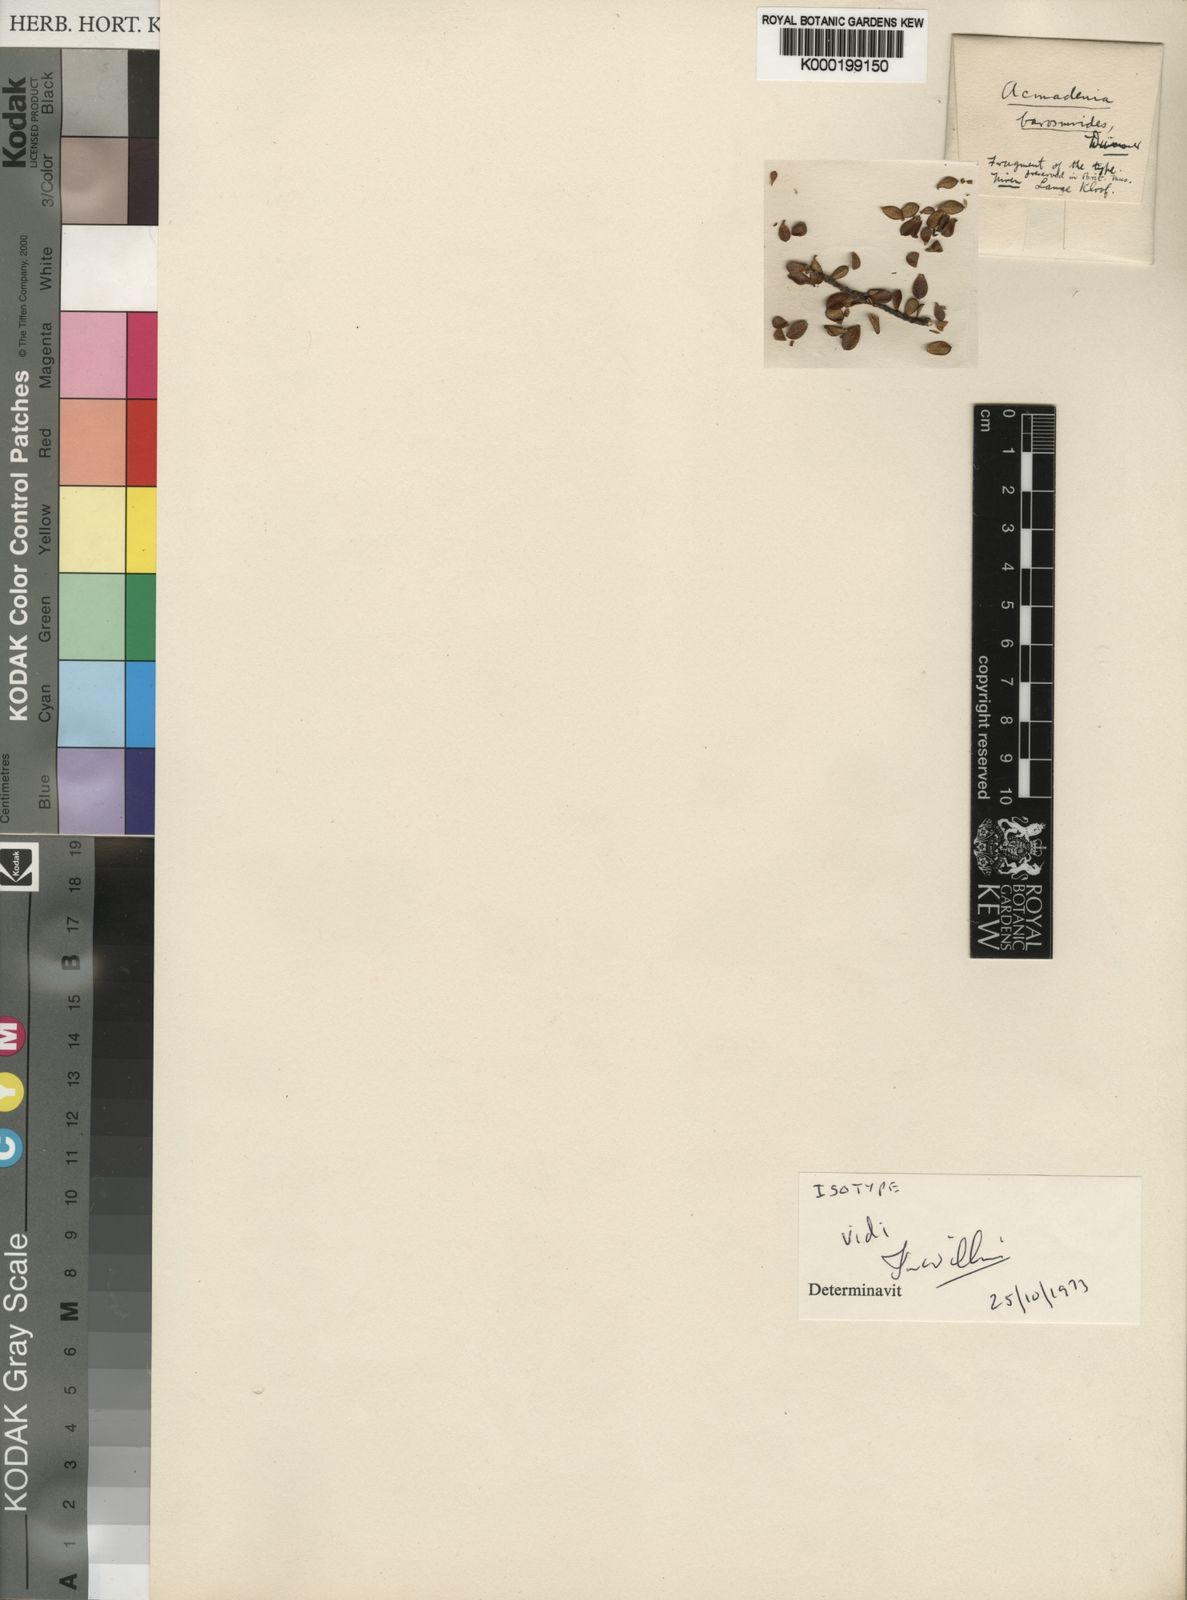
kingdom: Plantae
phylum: Tracheophyta
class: Magnoliopsida
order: Sapindales
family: Rutaceae
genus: Phyllosma
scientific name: Phyllosma barosmoides
